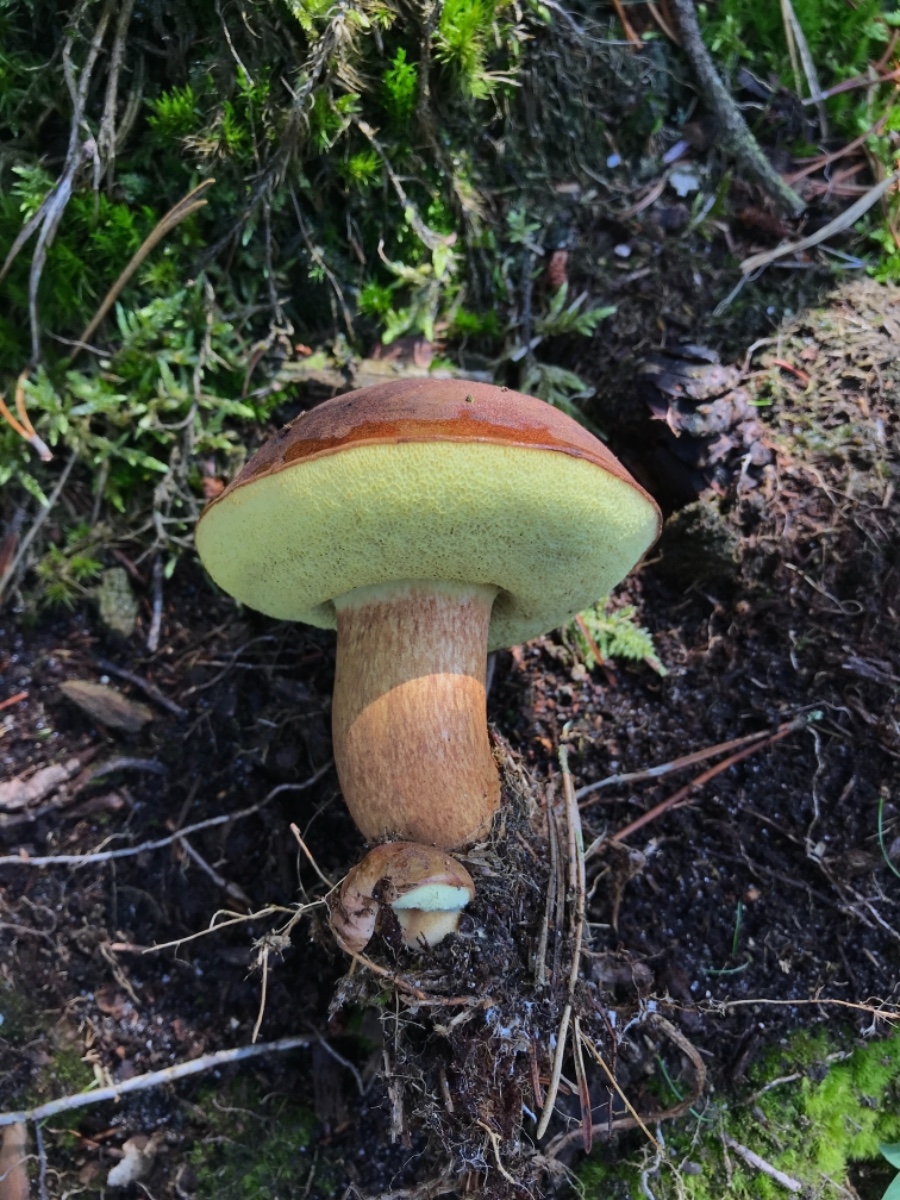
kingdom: Fungi
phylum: Basidiomycota
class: Agaricomycetes
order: Boletales
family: Boletaceae
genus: Imleria
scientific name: Imleria badia
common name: brunstokket rørhat
